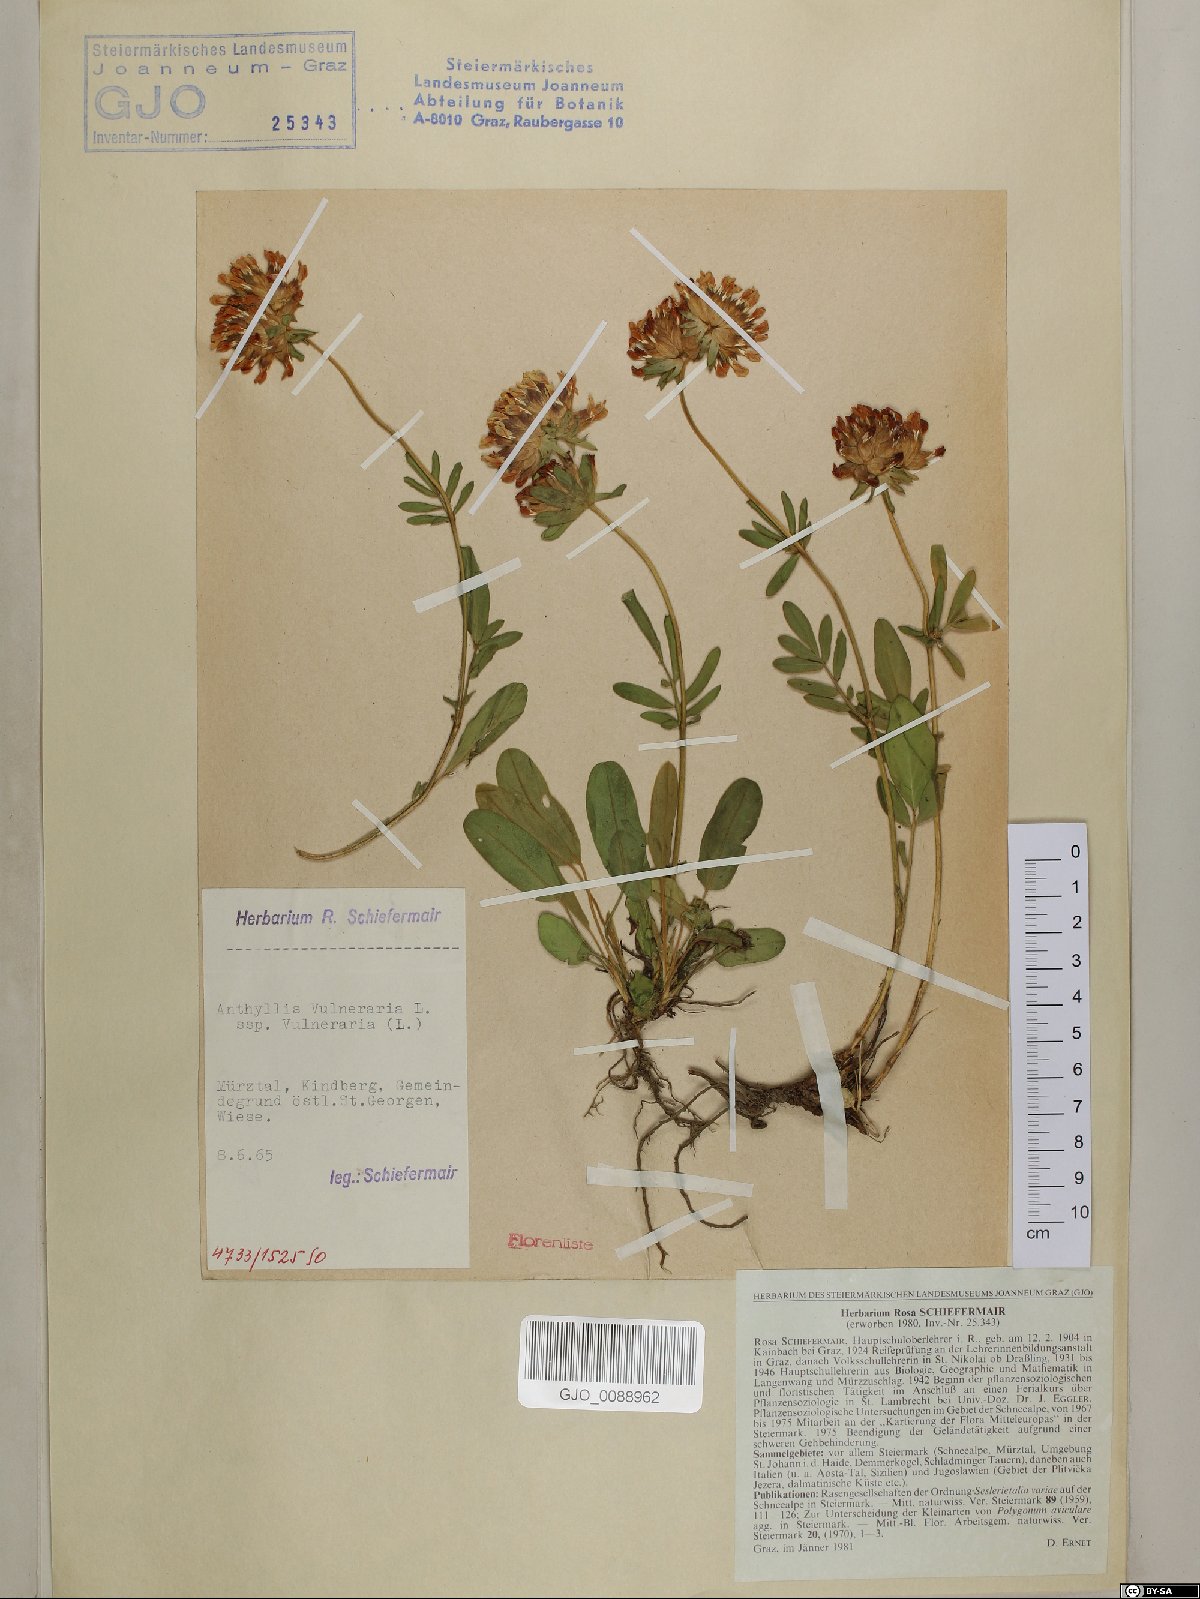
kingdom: Plantae
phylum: Tracheophyta
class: Magnoliopsida
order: Fabales
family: Fabaceae
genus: Anthyllis
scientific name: Anthyllis vulneraria
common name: Kidney vetch
